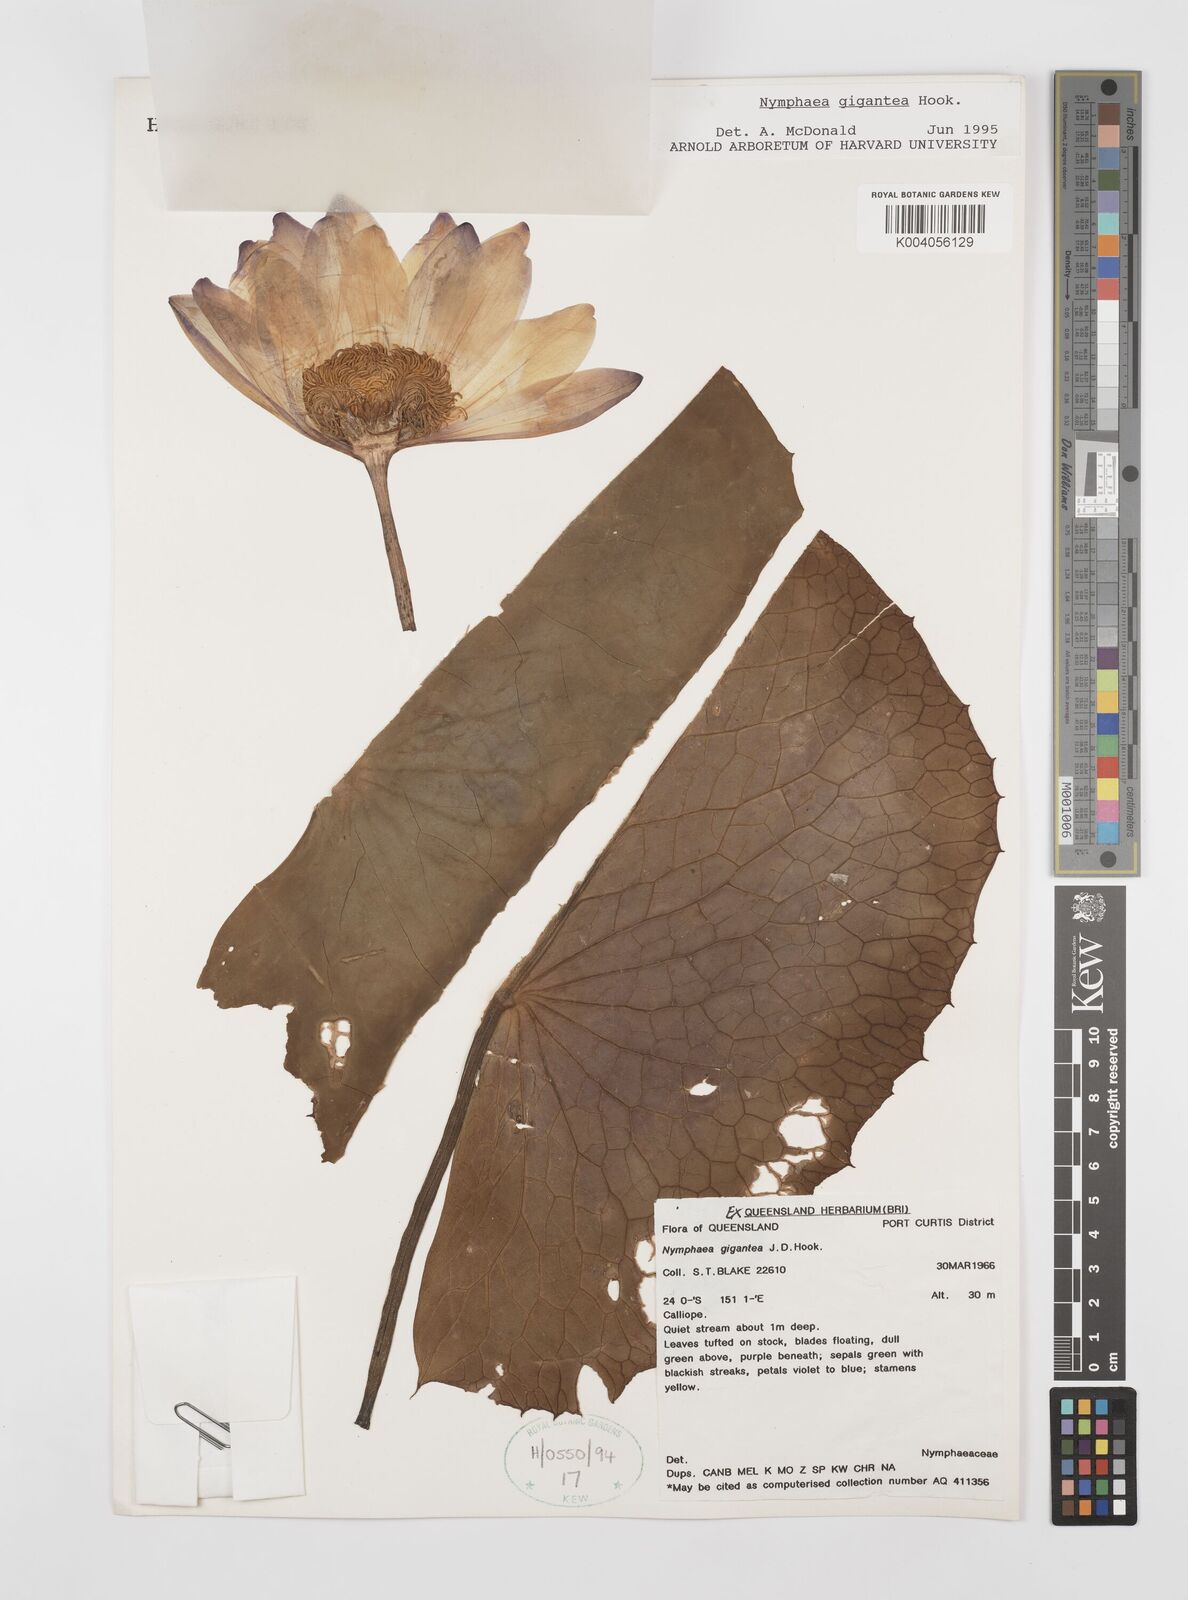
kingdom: Plantae
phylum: Tracheophyta
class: Magnoliopsida
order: Nymphaeales
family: Nymphaeaceae
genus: Nymphaea
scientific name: Nymphaea gigantea
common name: Giant water-lily
